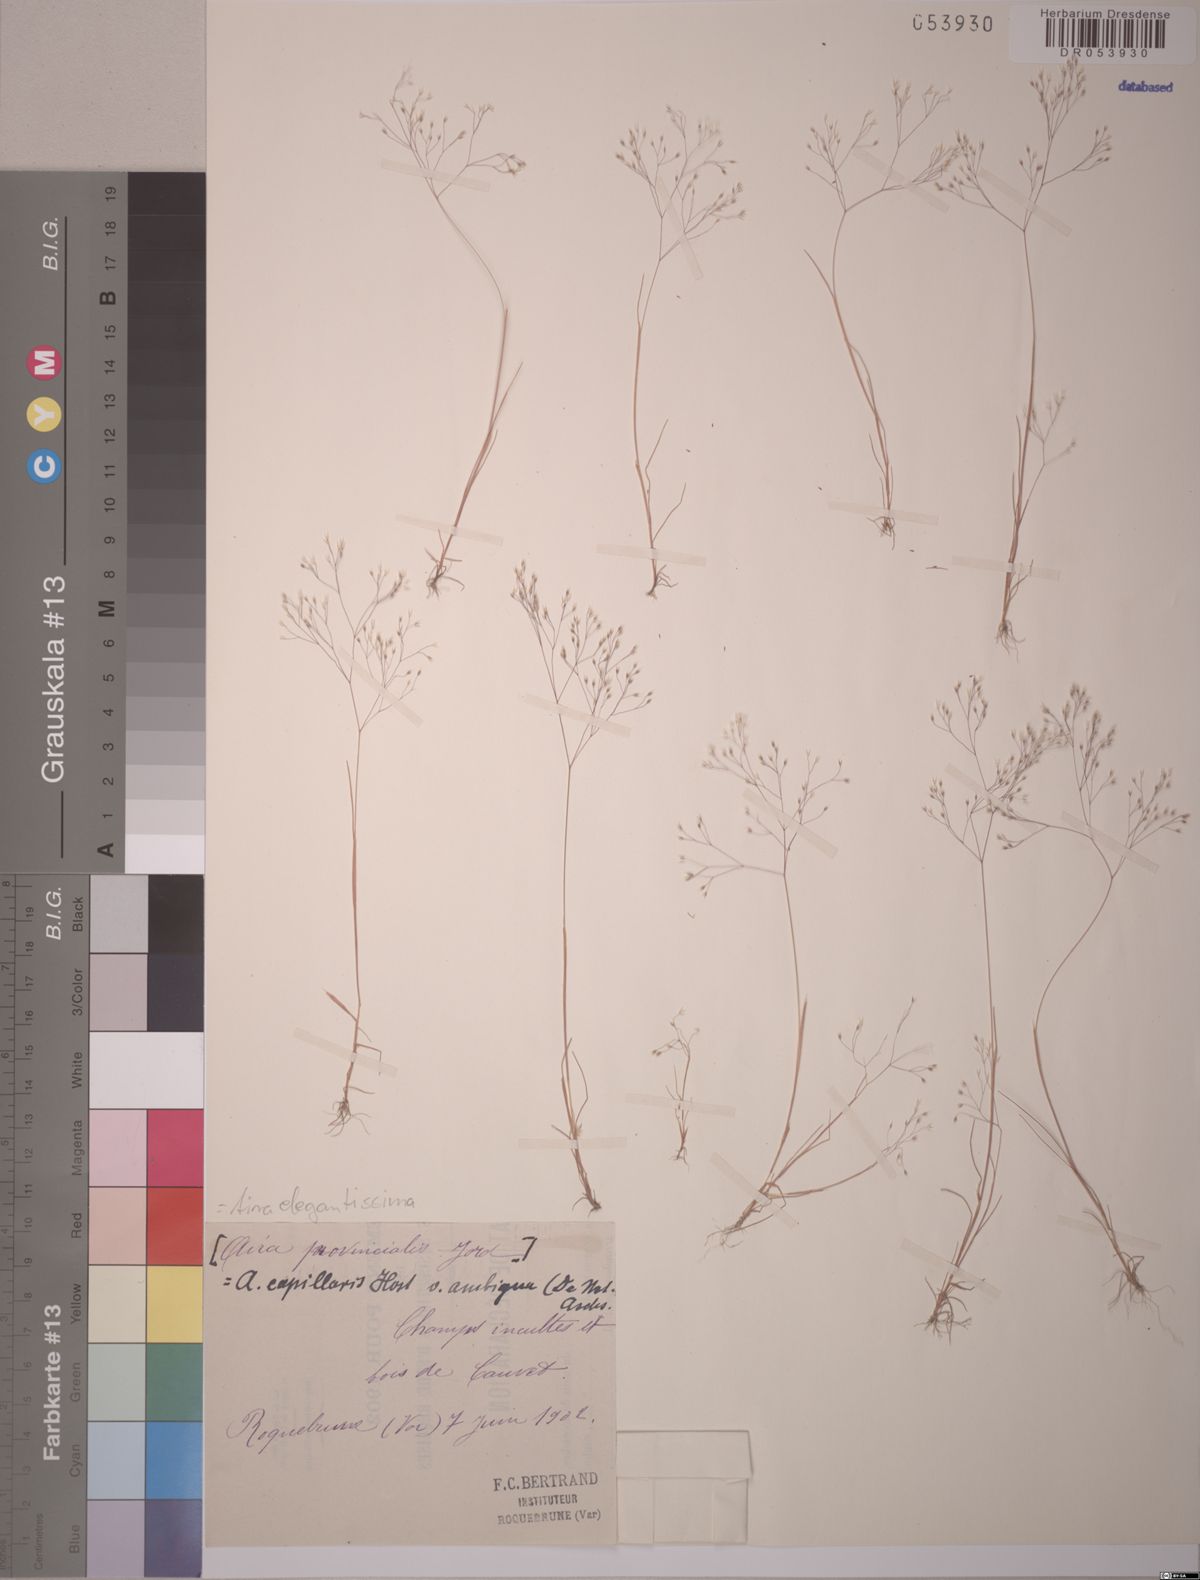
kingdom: Plantae
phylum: Tracheophyta
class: Liliopsida
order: Poales
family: Poaceae
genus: Aira
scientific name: Aira elegans
